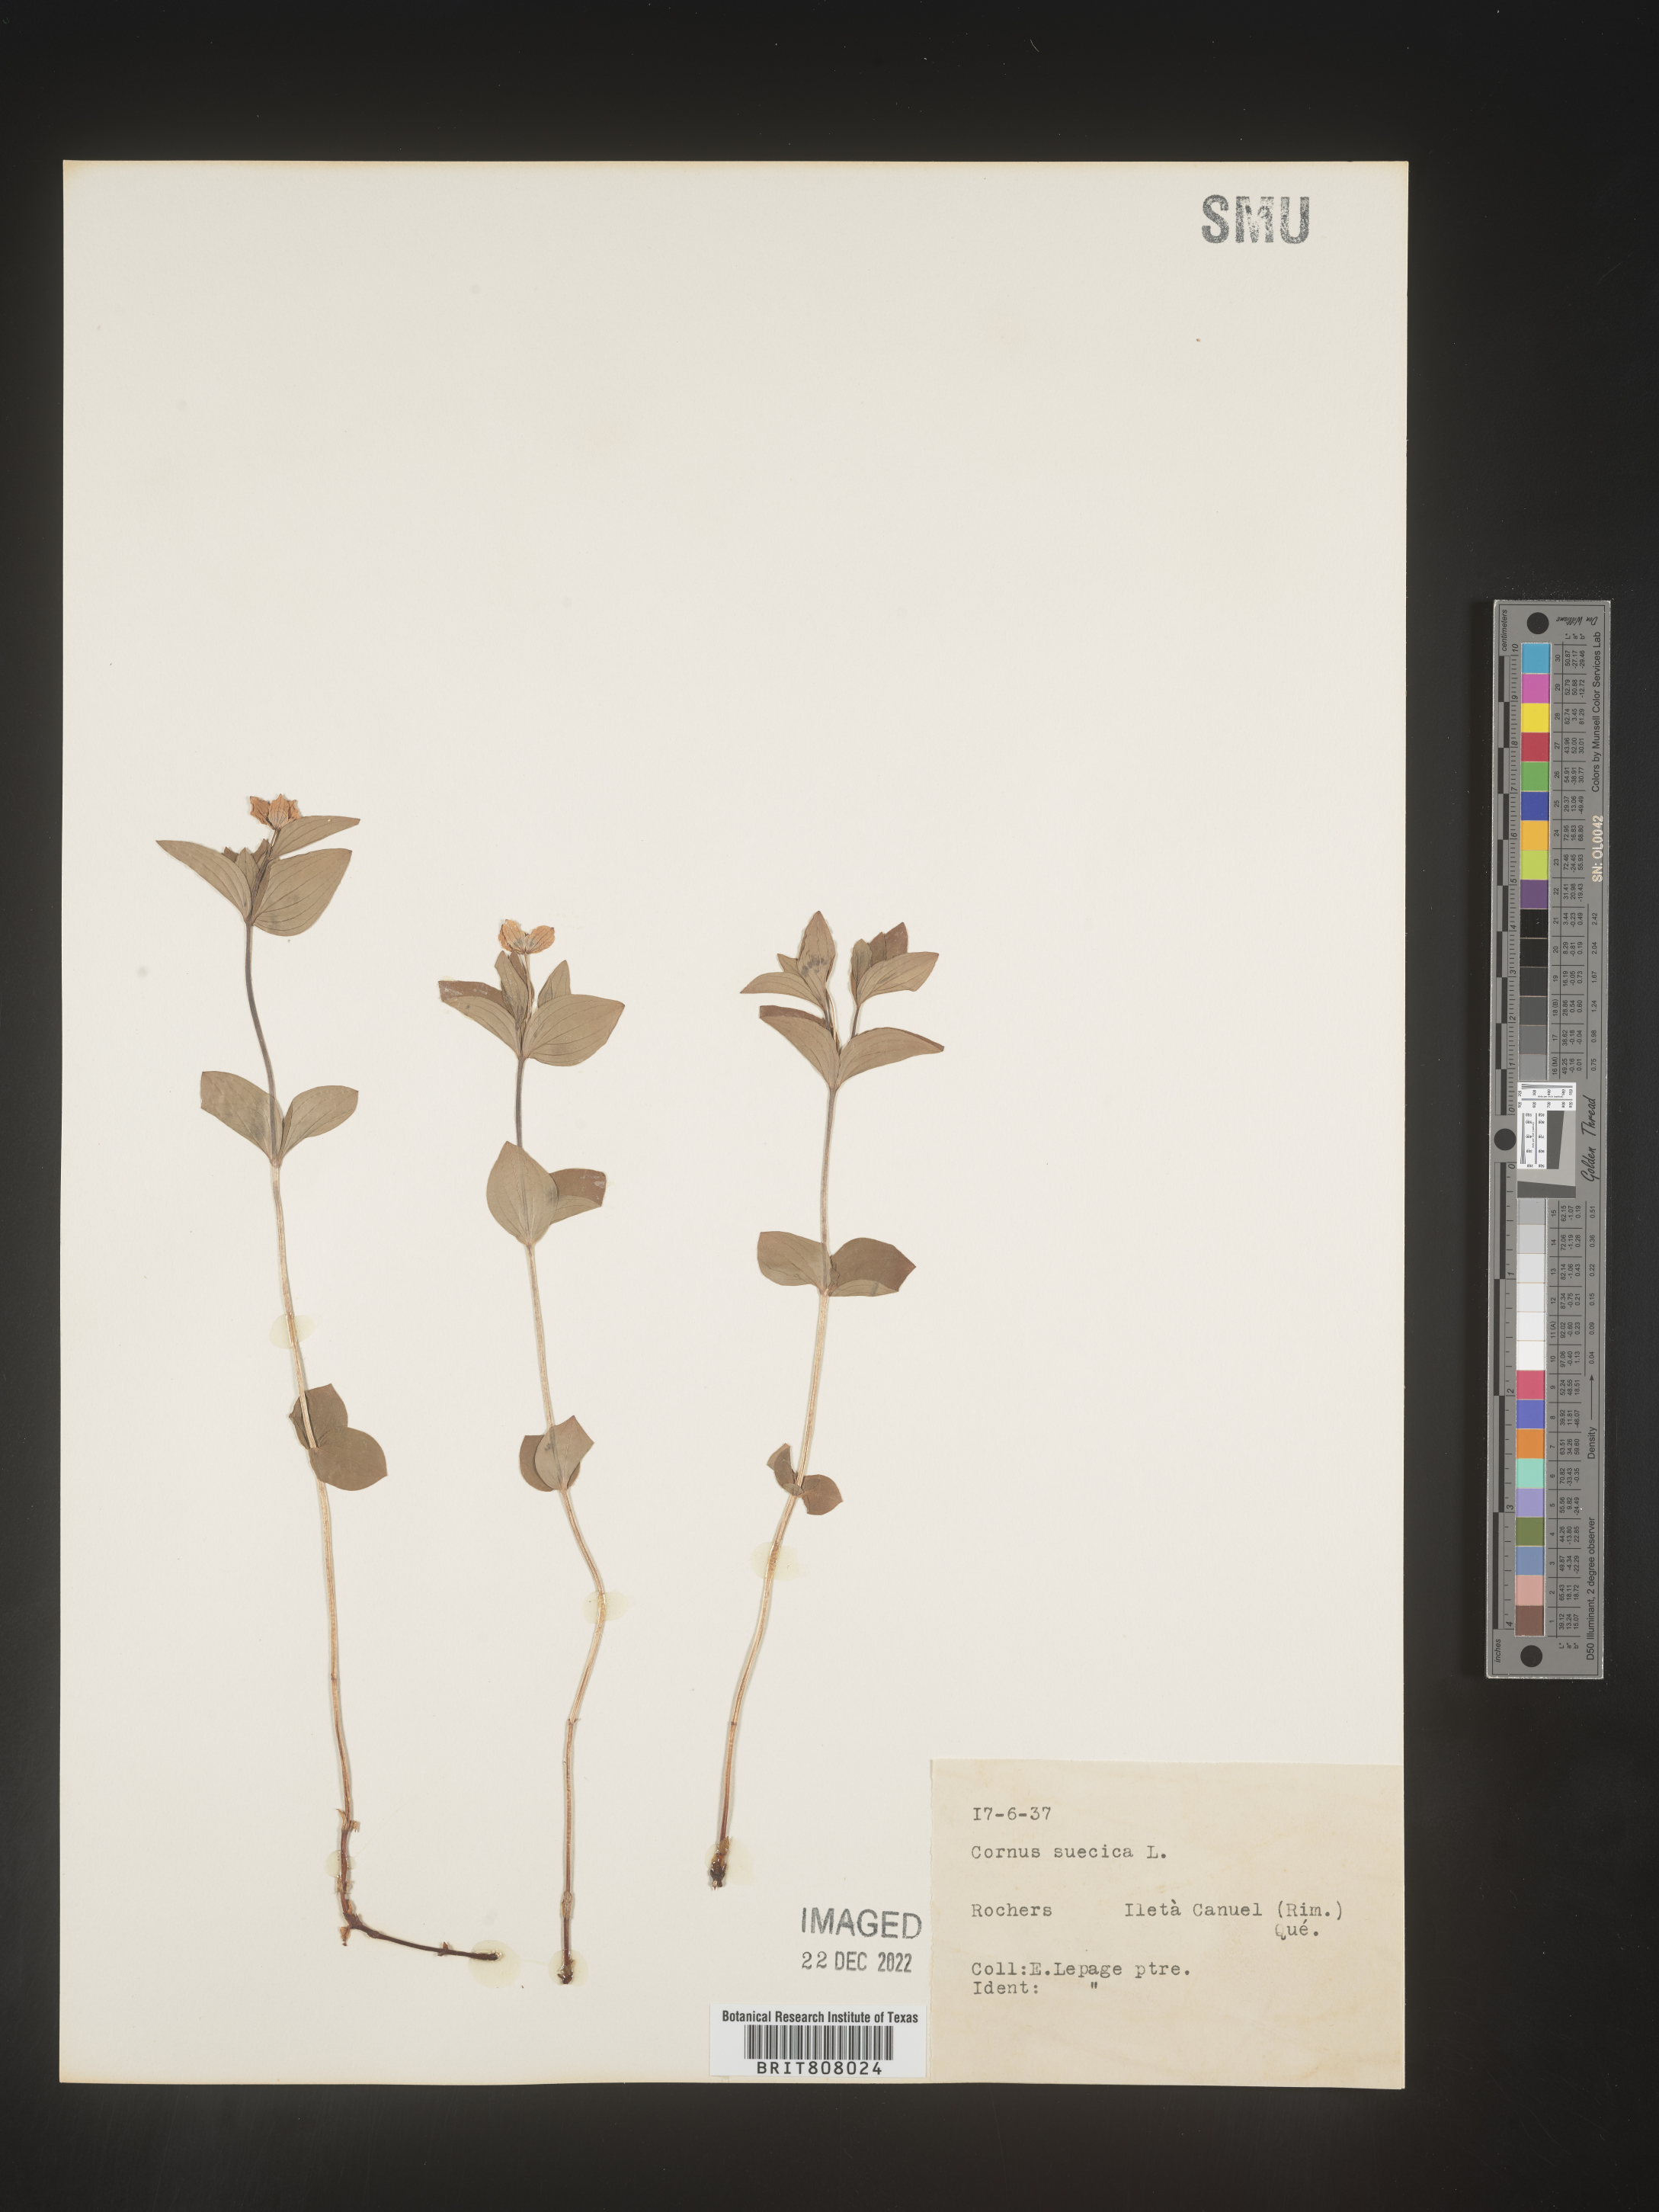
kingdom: Plantae
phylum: Tracheophyta
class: Magnoliopsida
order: Cornales
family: Cornaceae
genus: Cornus
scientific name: Cornus
